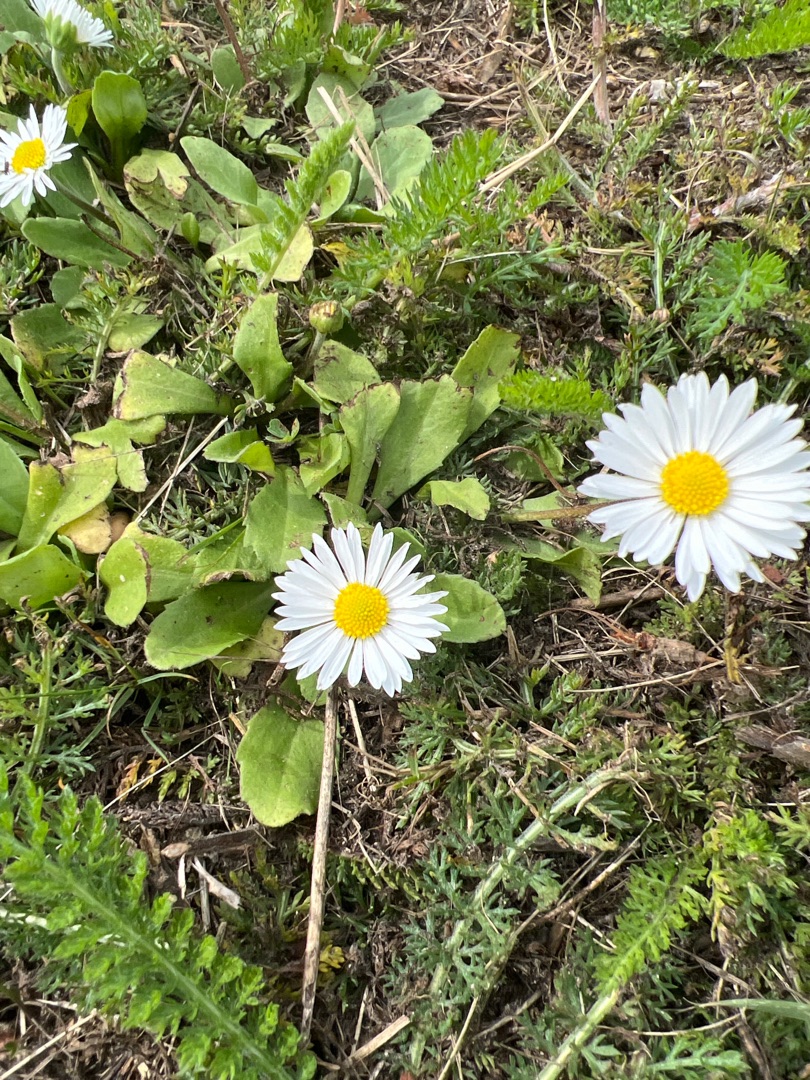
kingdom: Plantae
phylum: Tracheophyta
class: Magnoliopsida
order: Asterales
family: Asteraceae
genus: Bellis
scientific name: Bellis perennis
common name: Tusindfryd
